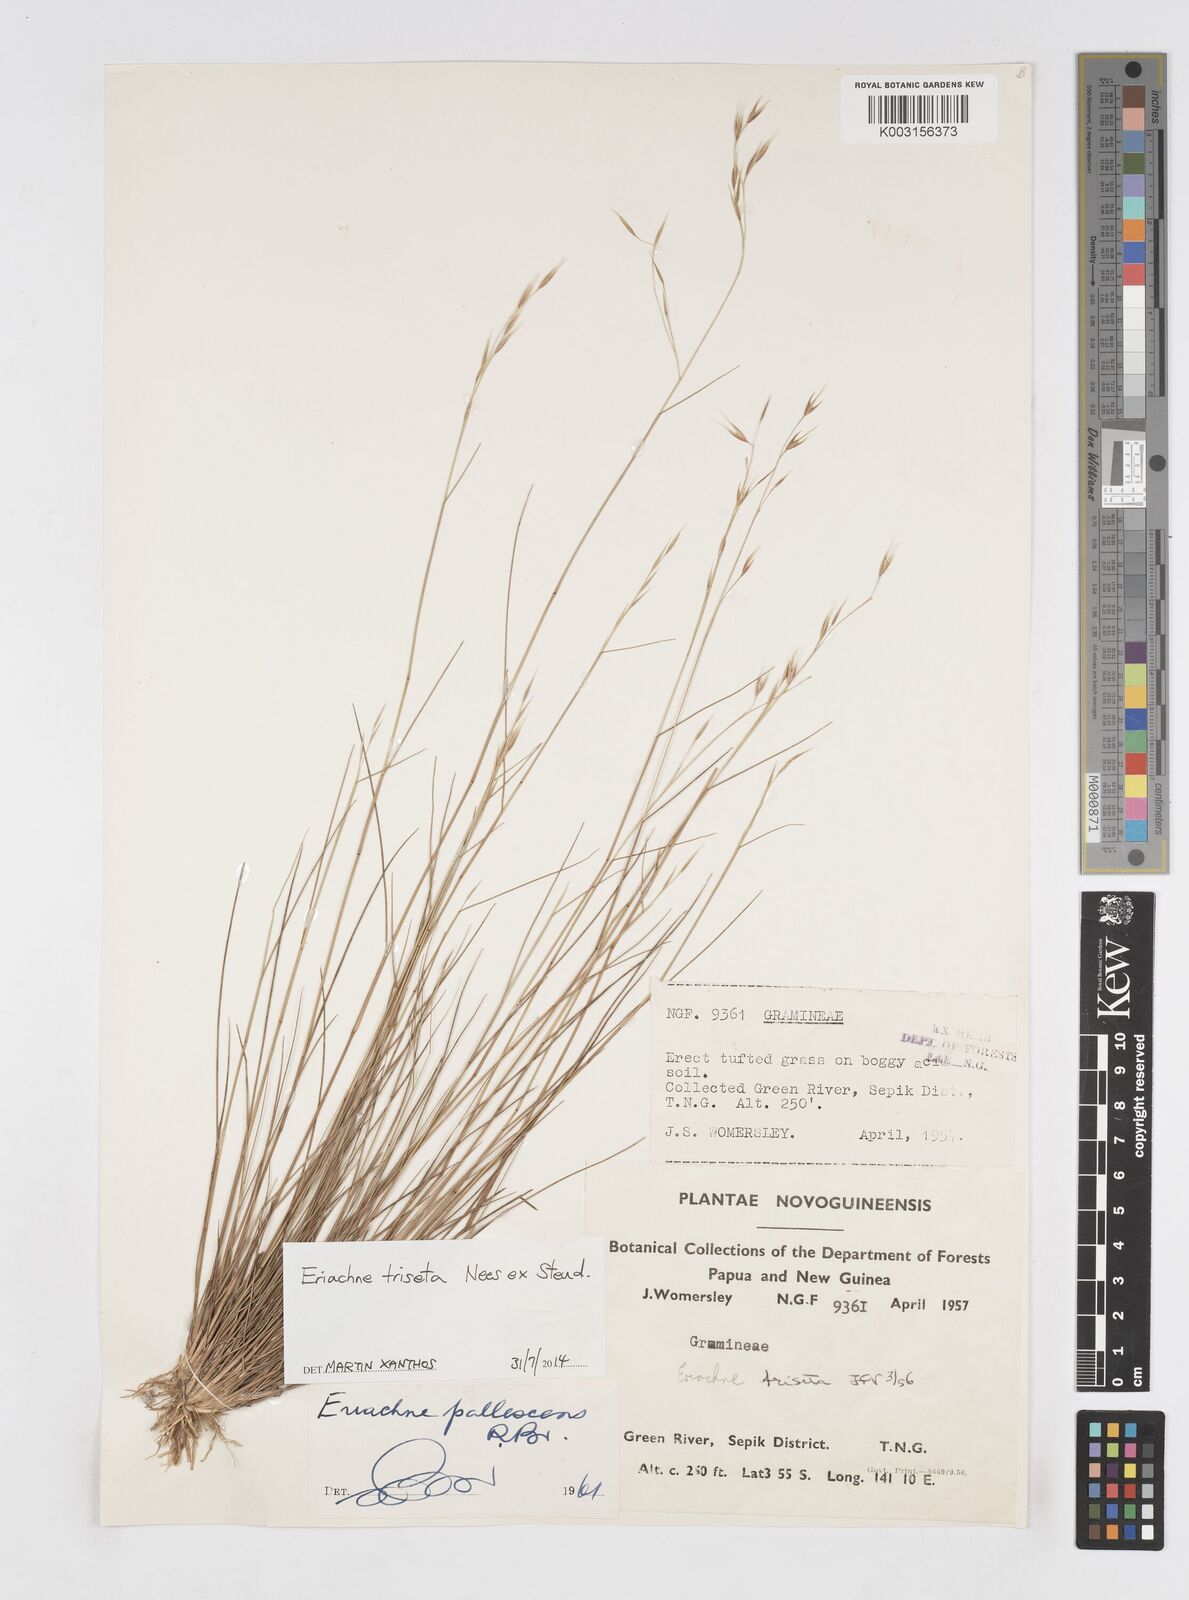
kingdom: Plantae
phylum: Tracheophyta
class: Liliopsida
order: Poales
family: Poaceae
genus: Eriachne
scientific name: Eriachne triseta
